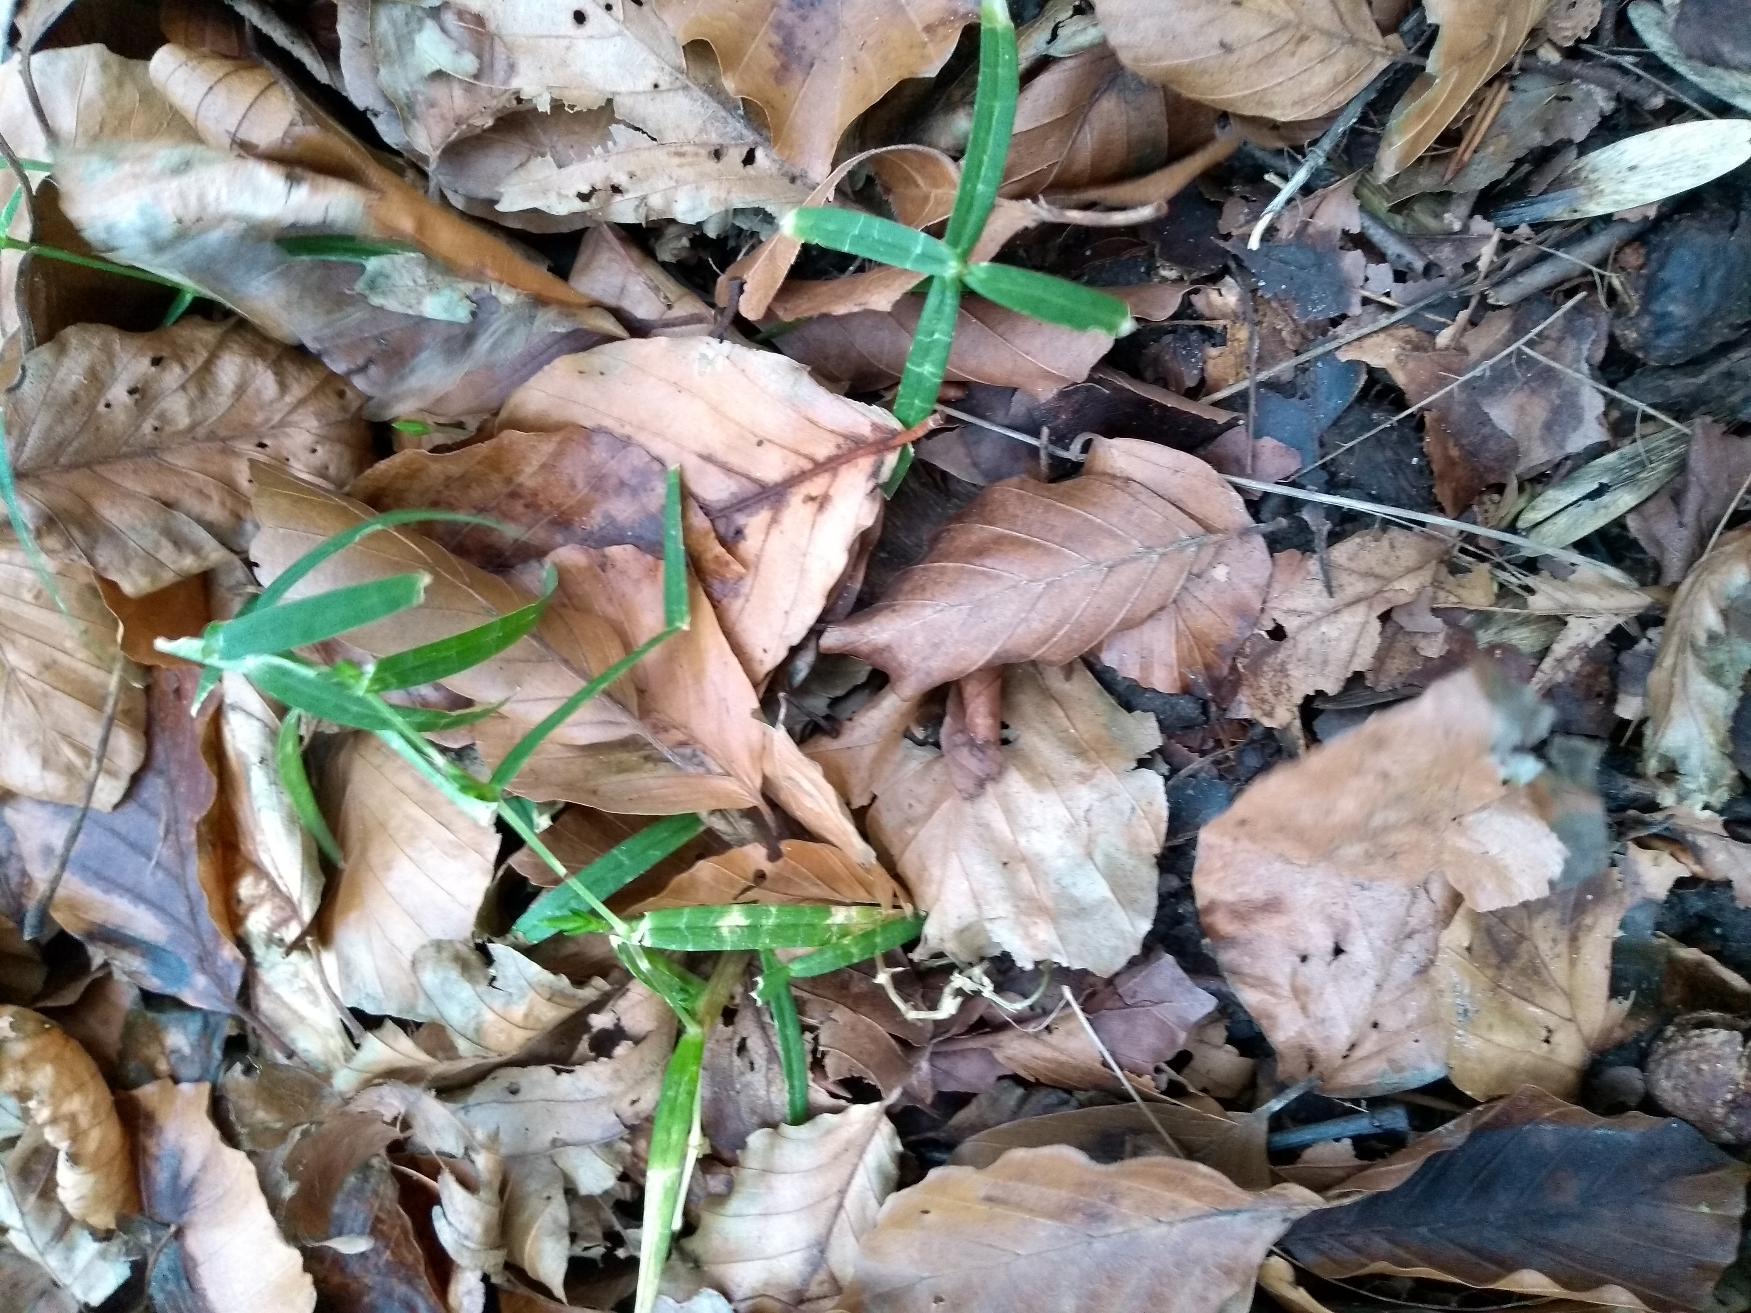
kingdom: Plantae
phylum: Tracheophyta
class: Magnoliopsida
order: Caryophyllales
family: Caryophyllaceae
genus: Rabelera
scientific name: Rabelera holostea
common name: Stor fladstjerne
